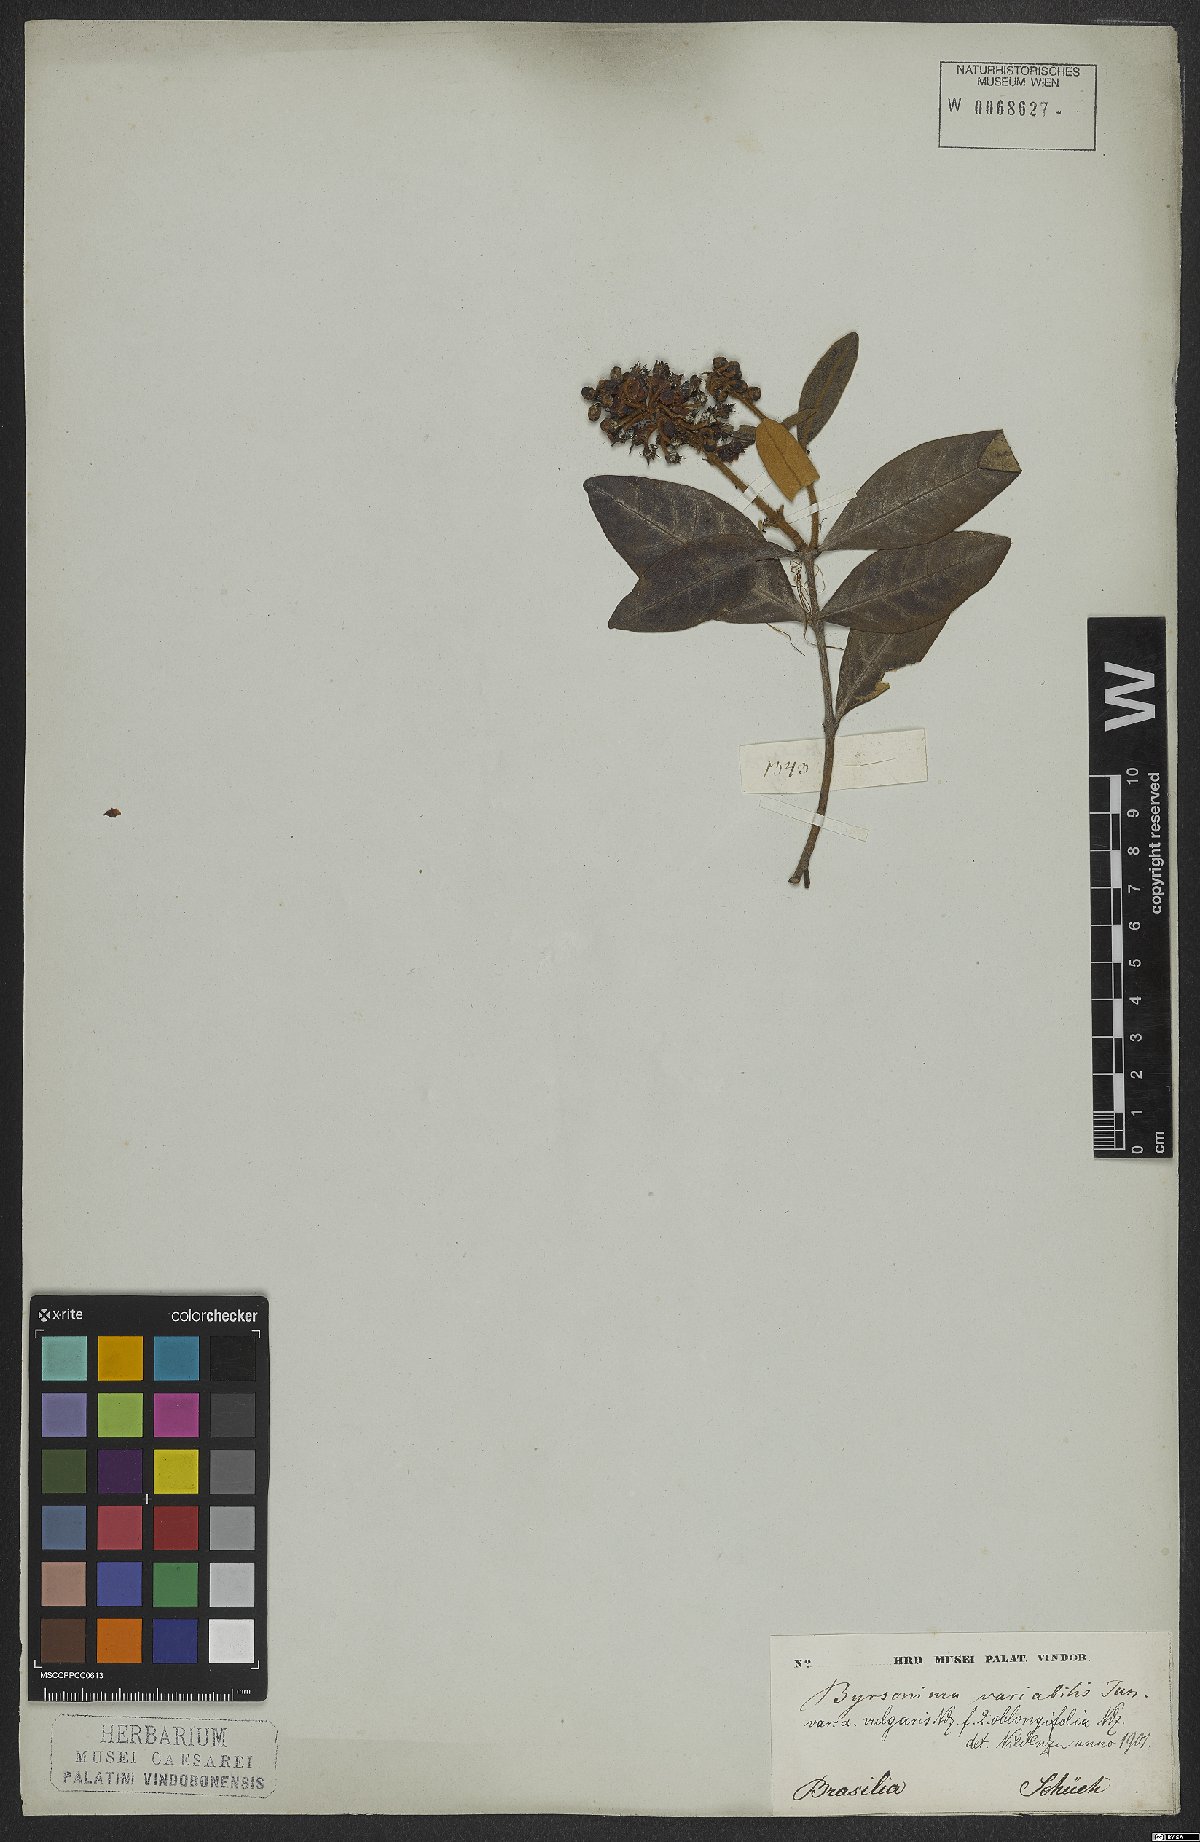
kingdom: Plantae
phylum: Tracheophyta
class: Magnoliopsida
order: Malpighiales
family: Malpighiaceae
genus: Byrsonima
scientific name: Byrsonima variabilis
